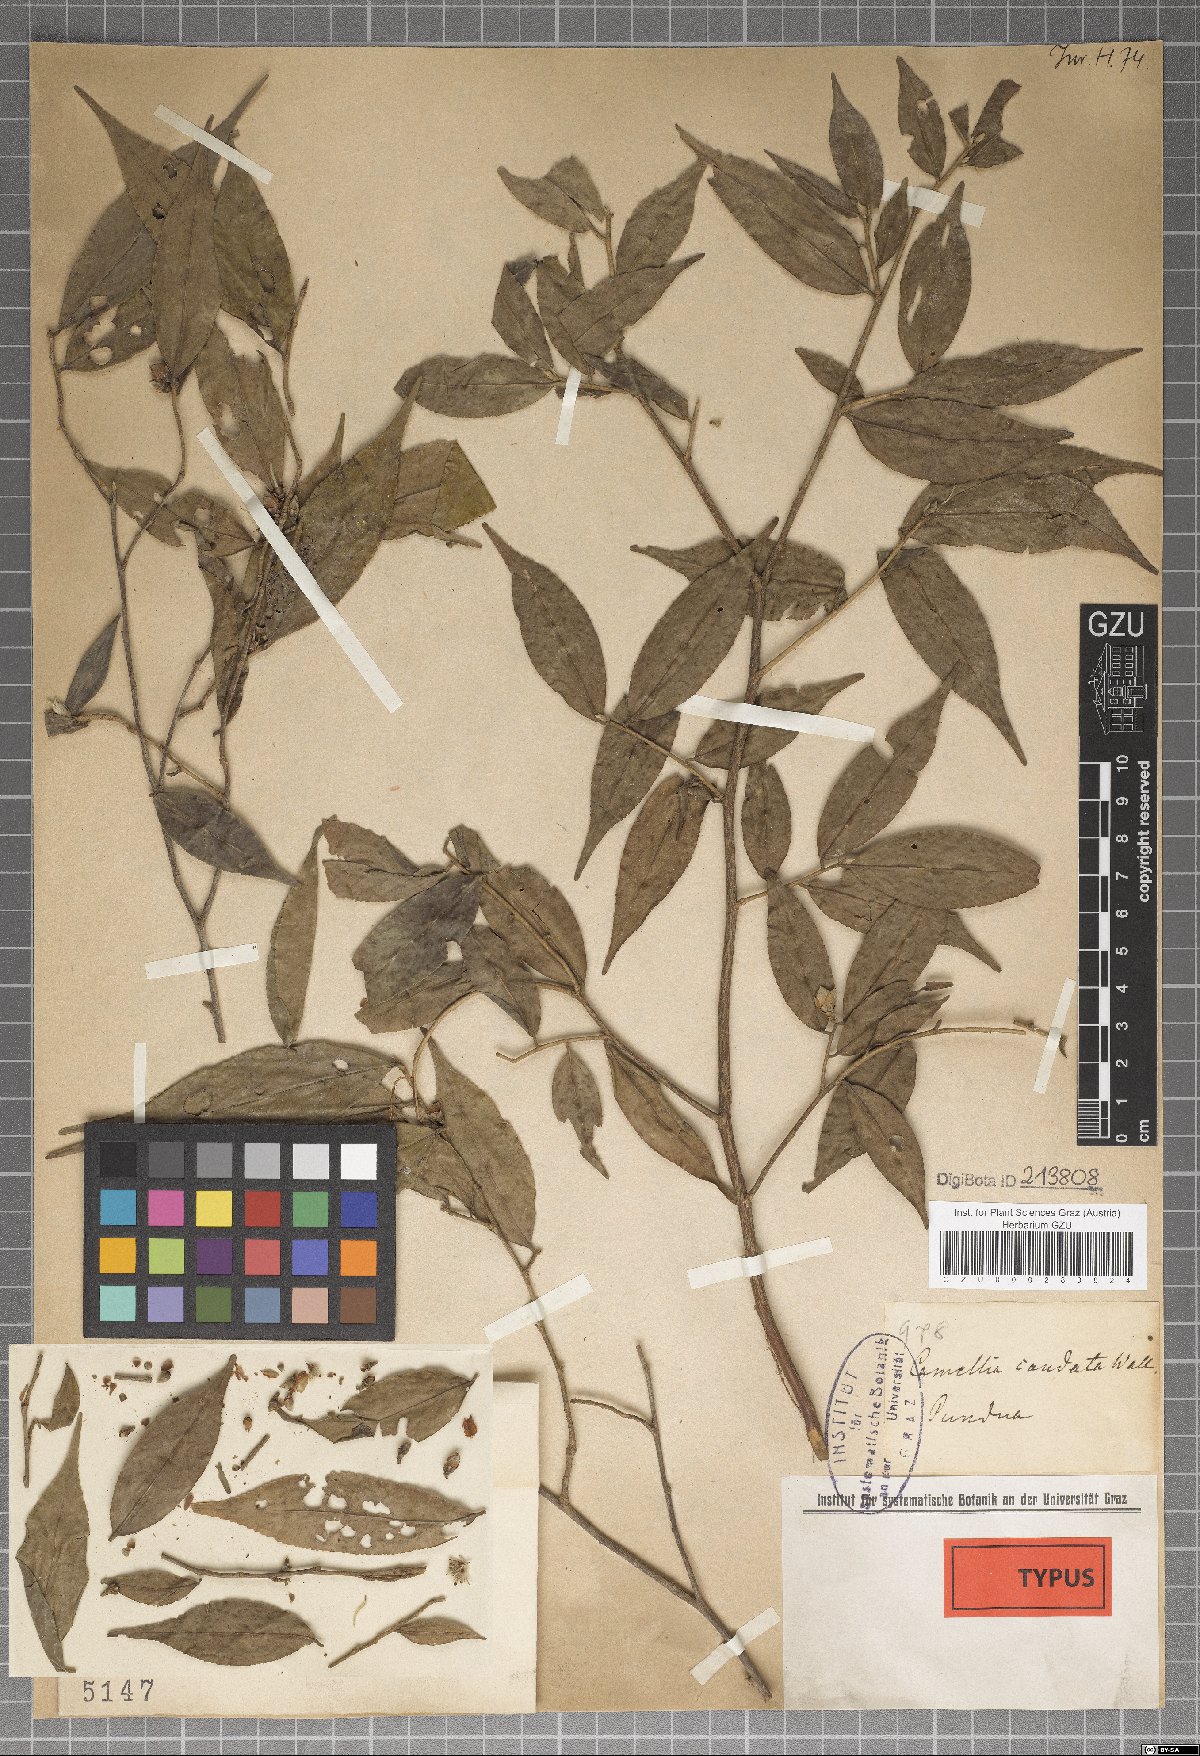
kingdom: Plantae
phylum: Tracheophyta
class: Magnoliopsida
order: Ericales
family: Theaceae
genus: Camellia
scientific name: Camellia caudata
